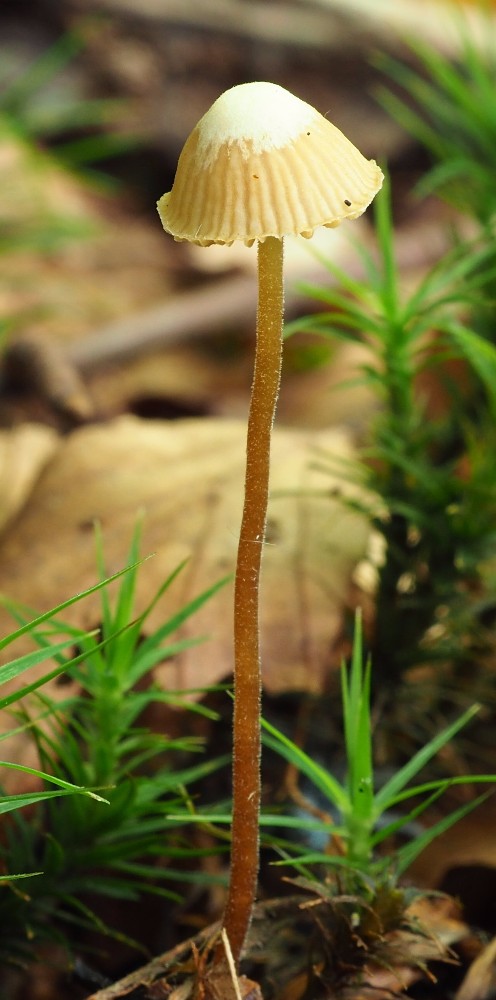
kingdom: Fungi
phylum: Basidiomycota
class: Agaricomycetes
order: Agaricales
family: Hymenogastraceae
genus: Galerina
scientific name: Galerina atkinsoniana
